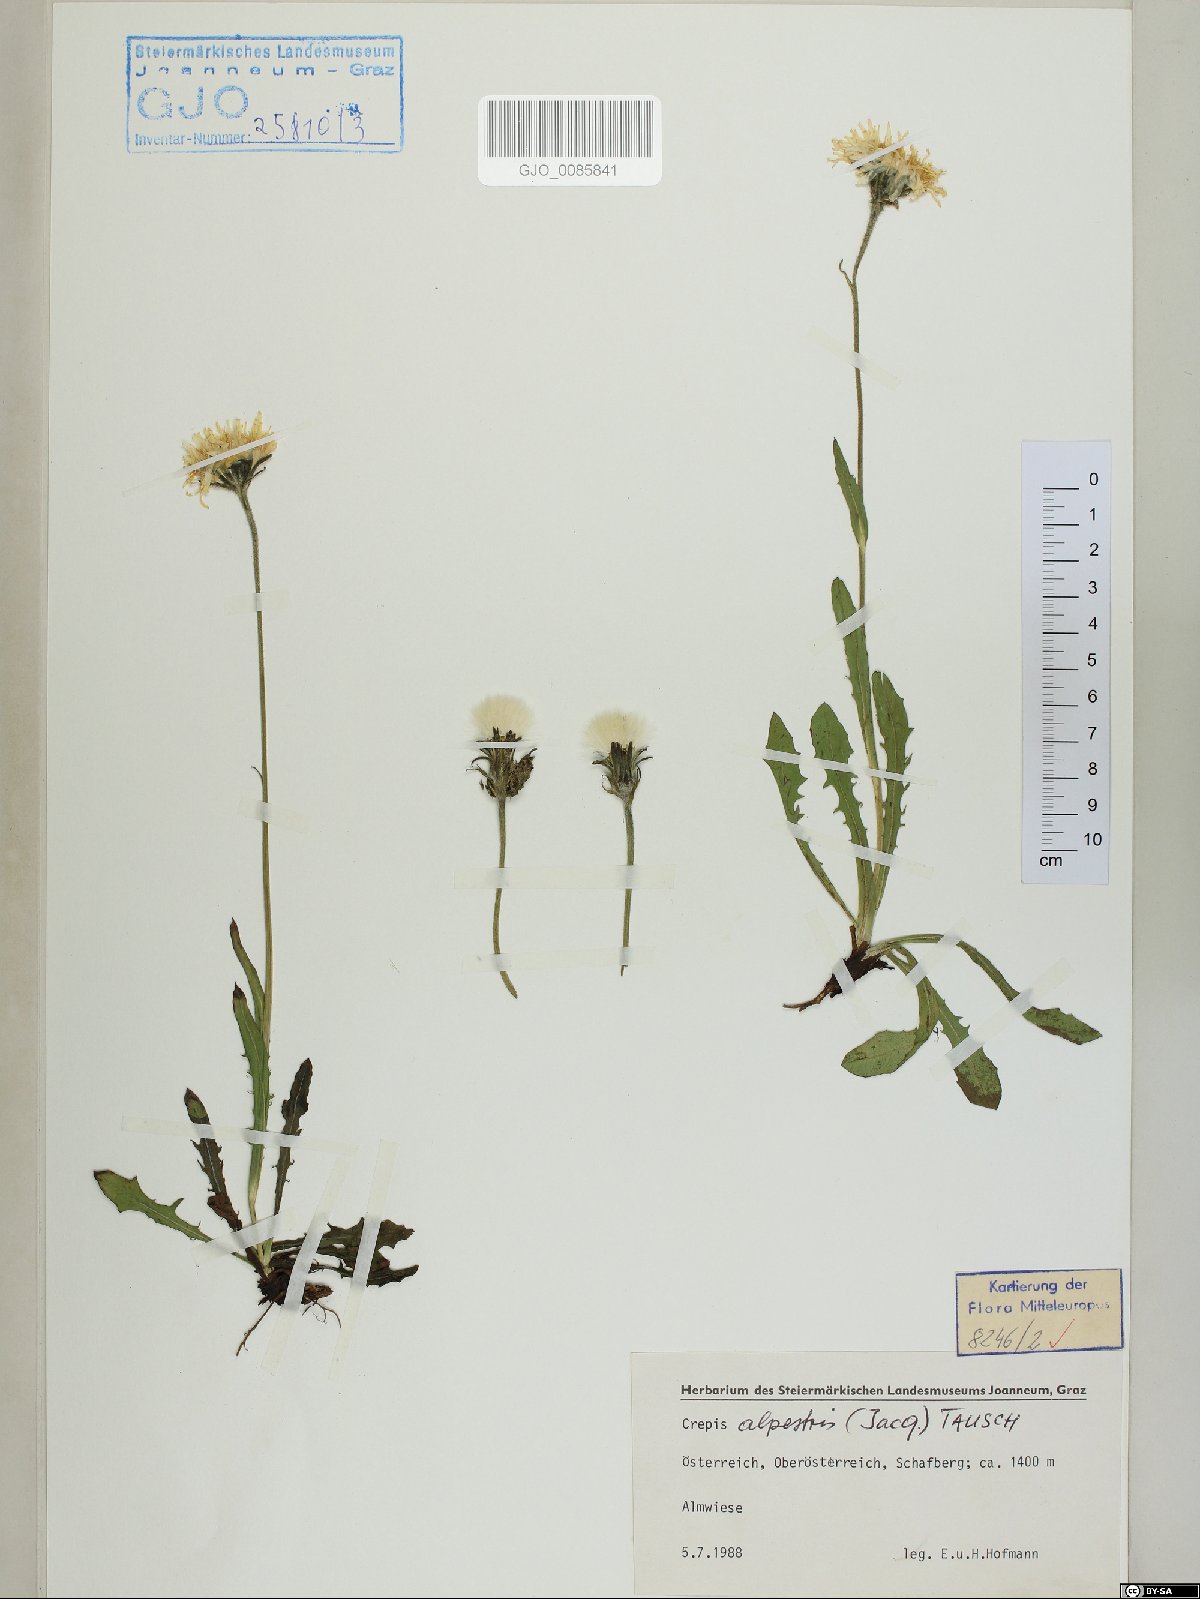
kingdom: Plantae
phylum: Tracheophyta
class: Magnoliopsida
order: Asterales
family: Asteraceae
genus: Crepis
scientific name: Crepis alpestris
